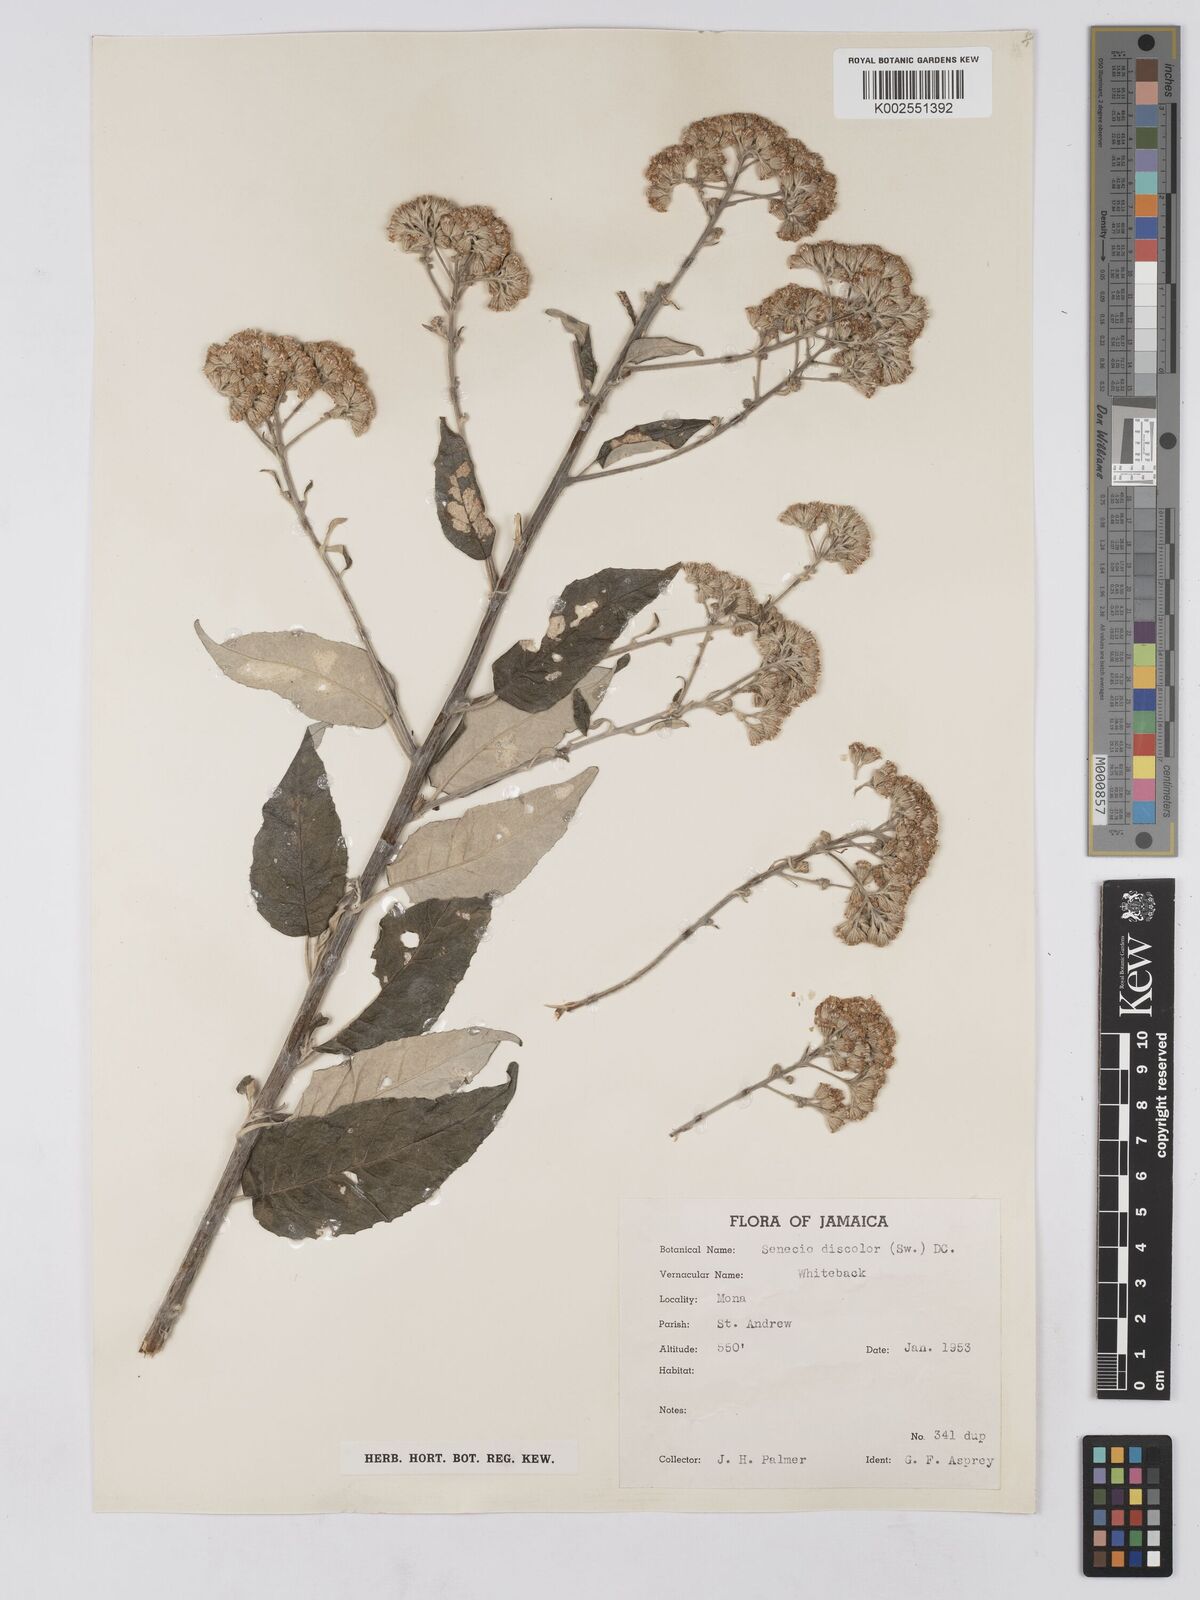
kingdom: Plantae
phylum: Tracheophyta
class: Magnoliopsida
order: Asterales
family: Asteraceae
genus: Zemisia
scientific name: Zemisia discolor
